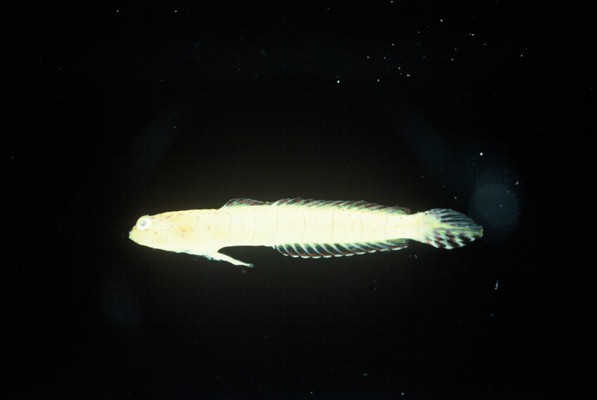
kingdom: Animalia
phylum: Chordata
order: Perciformes
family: Gobiidae
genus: Croilia
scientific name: Croilia mossambica
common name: Burrowing goby
